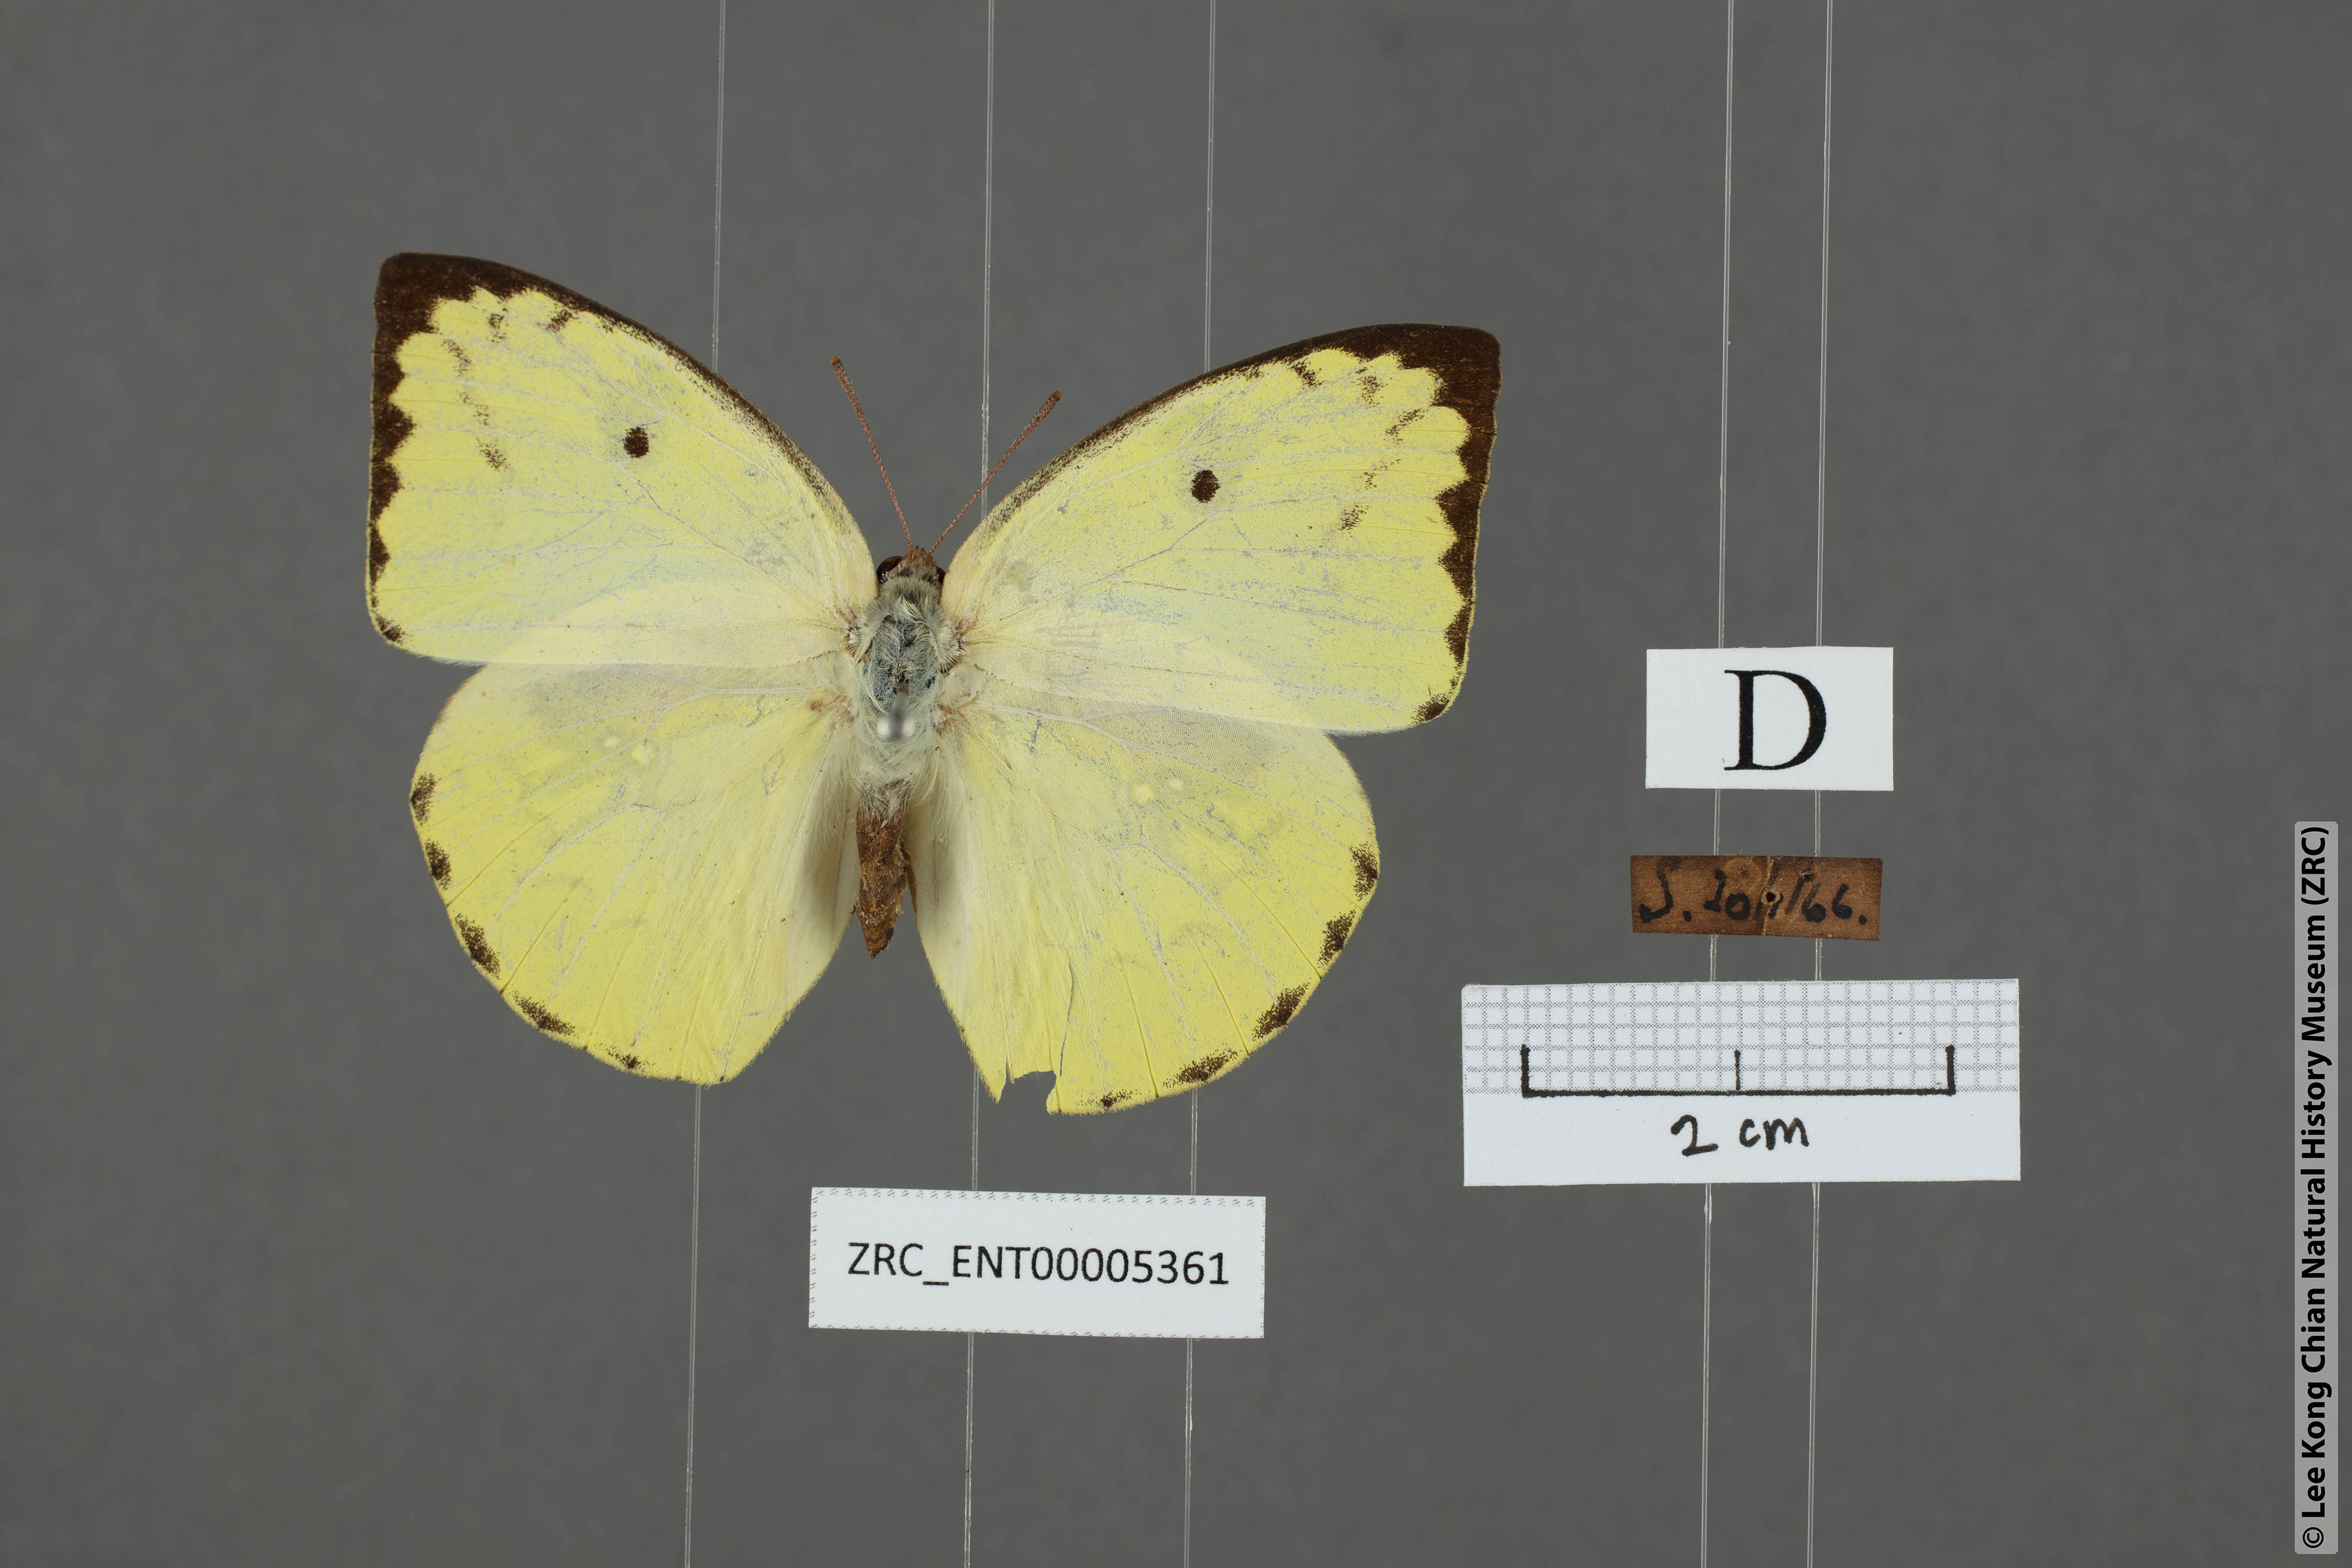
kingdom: Animalia
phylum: Arthropoda
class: Insecta
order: Lepidoptera
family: Pieridae
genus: Catopsilia
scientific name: Catopsilia pomona
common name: Common emigrant
